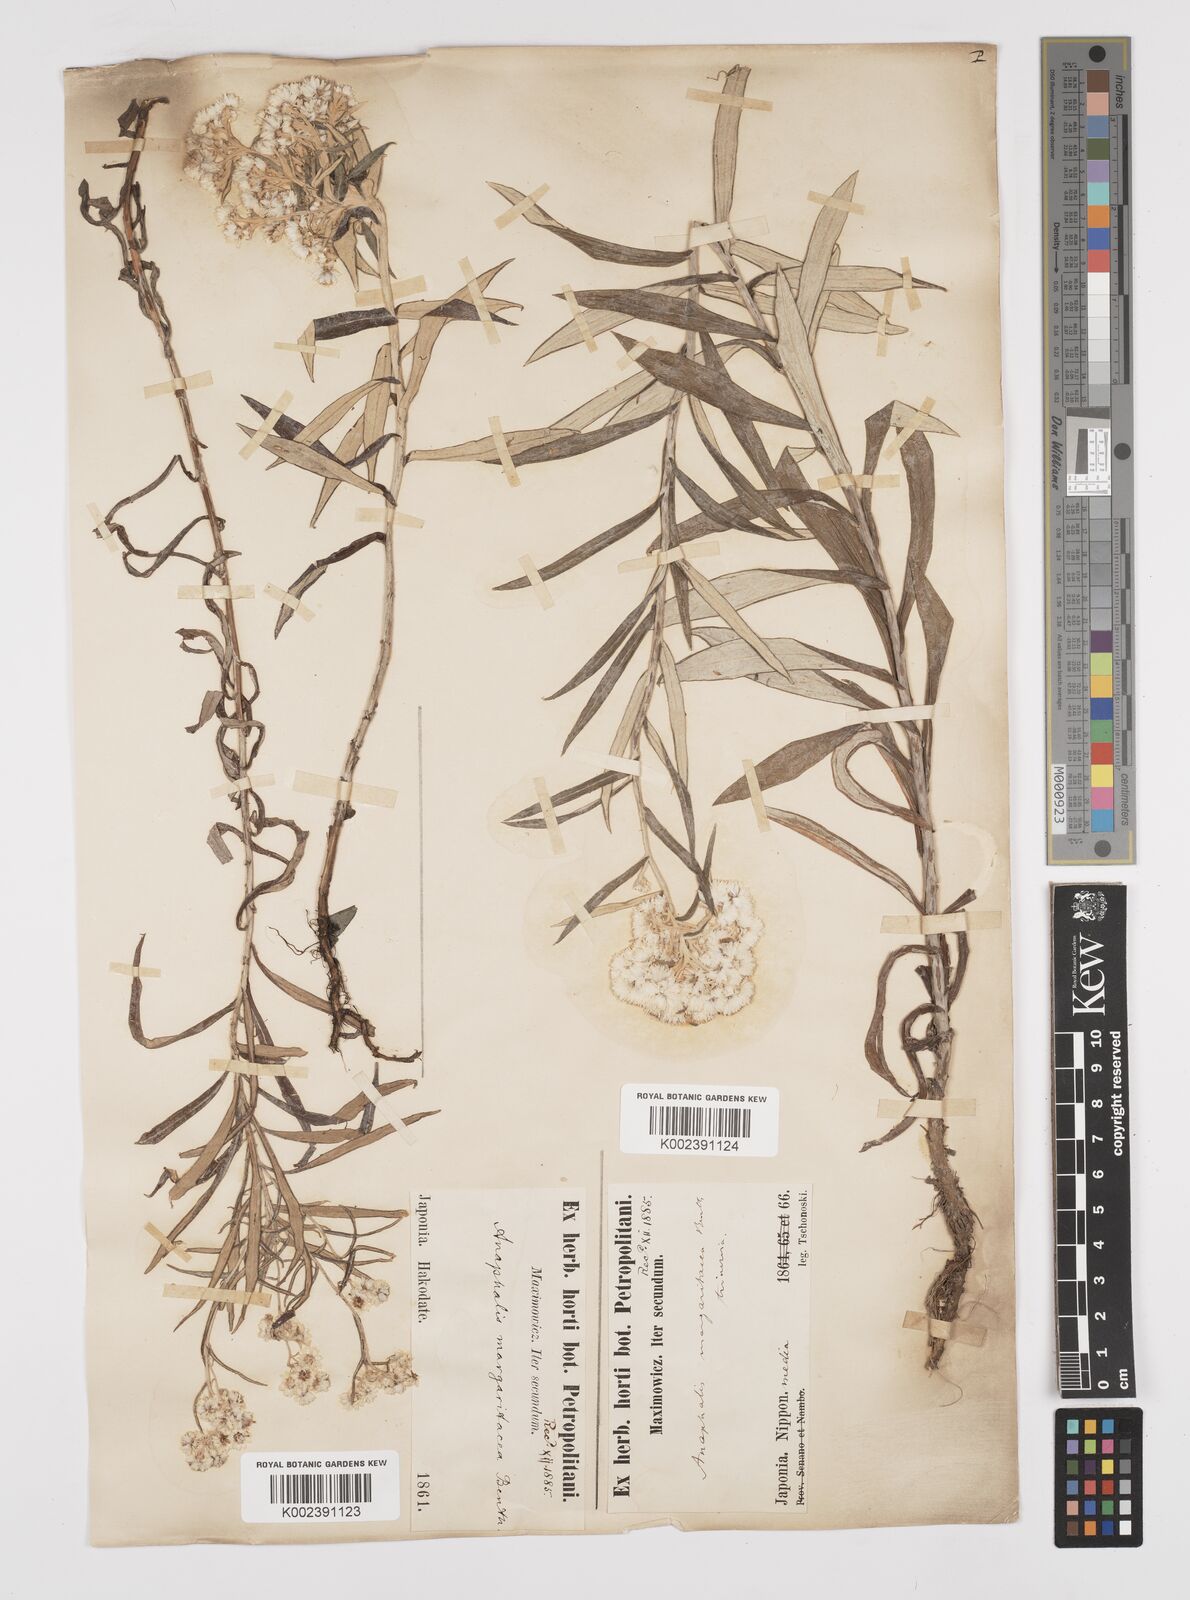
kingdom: Plantae
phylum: Tracheophyta
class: Magnoliopsida
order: Asterales
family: Asteraceae
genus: Anaphalis
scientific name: Anaphalis margaritacea
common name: Pearly everlasting
